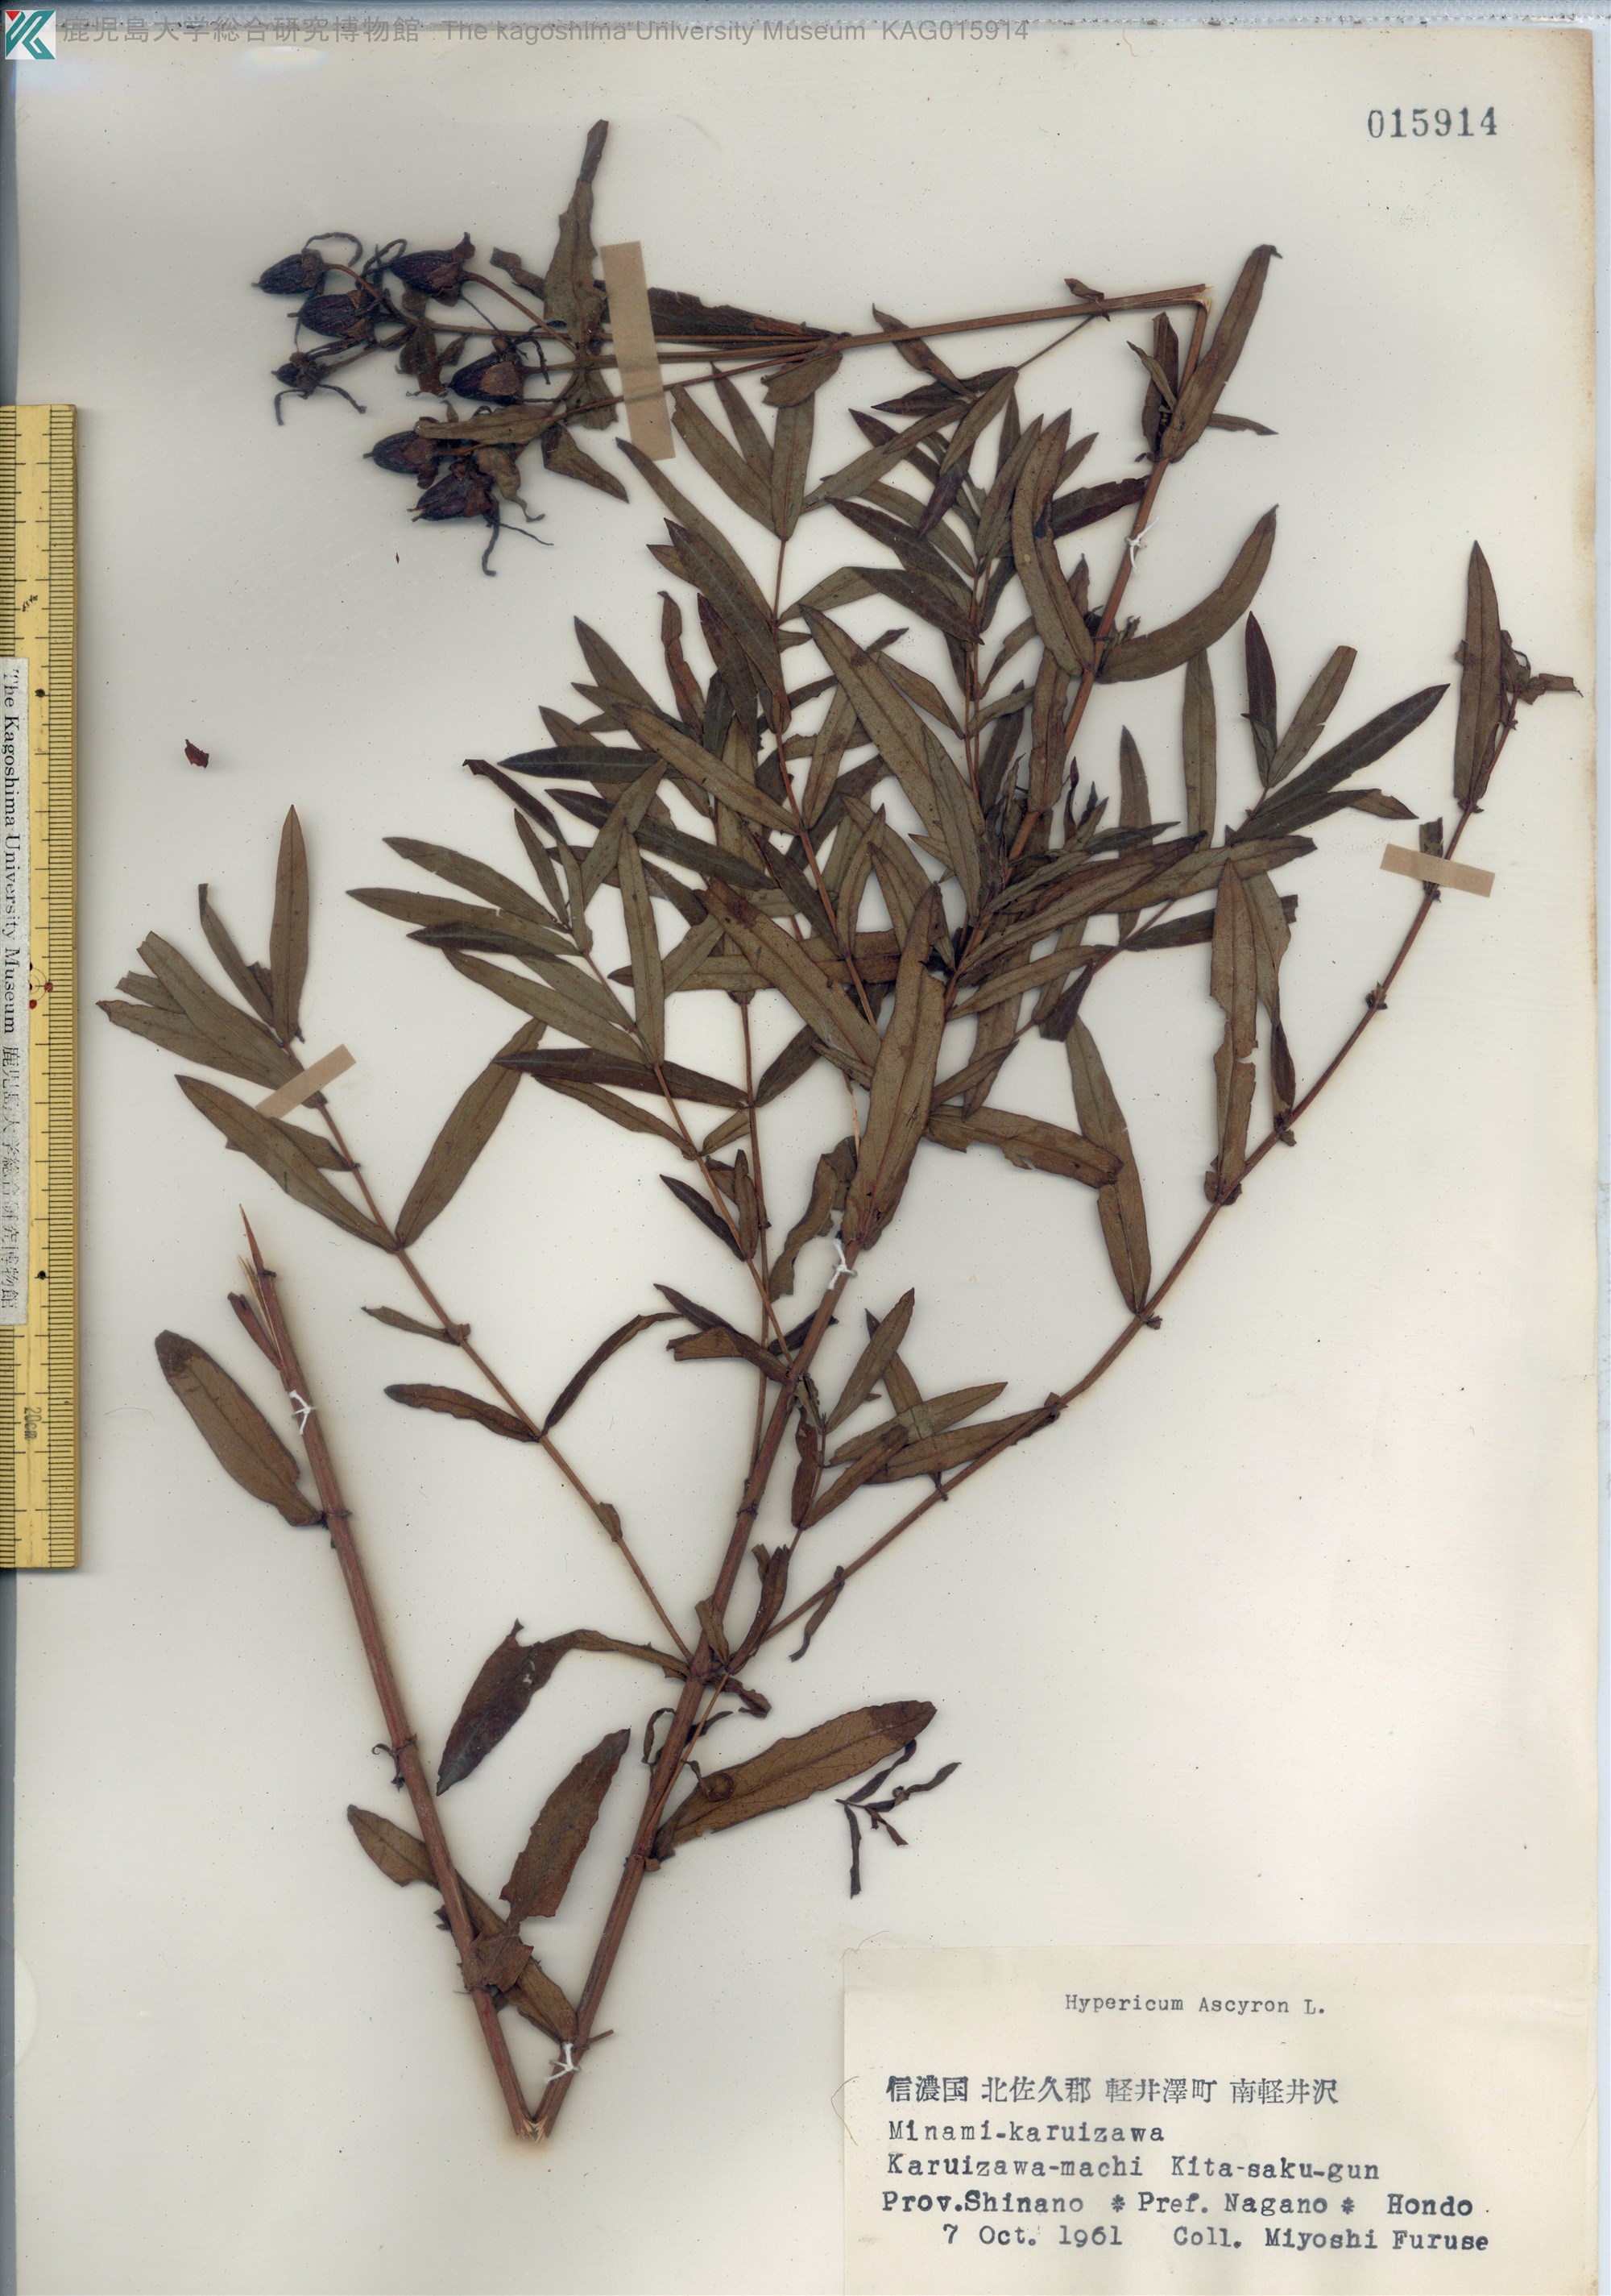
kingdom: Plantae
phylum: Tracheophyta
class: Magnoliopsida
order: Malpighiales
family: Hypericaceae
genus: Hypericum
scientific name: Hypericum ascyron
